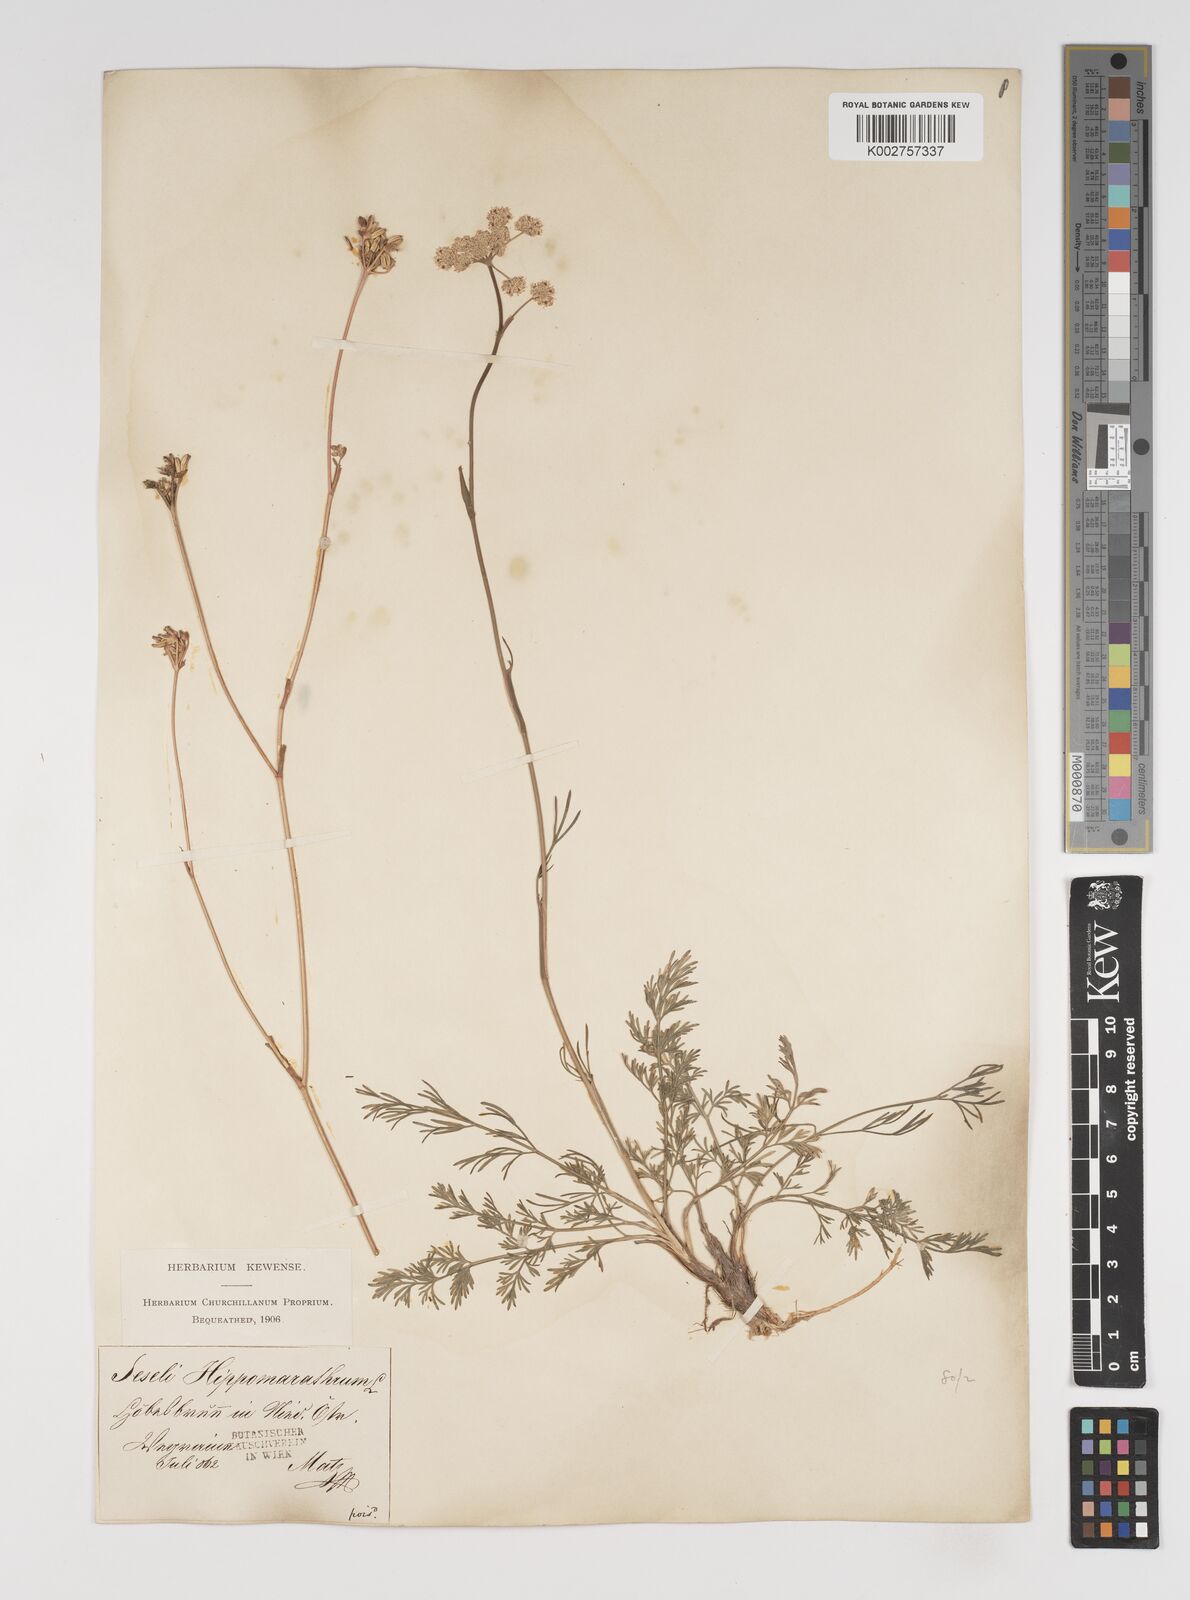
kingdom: Plantae
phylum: Tracheophyta
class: Magnoliopsida
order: Apiales
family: Apiaceae
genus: Hippomarathrum
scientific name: Hippomarathrum vulgare
